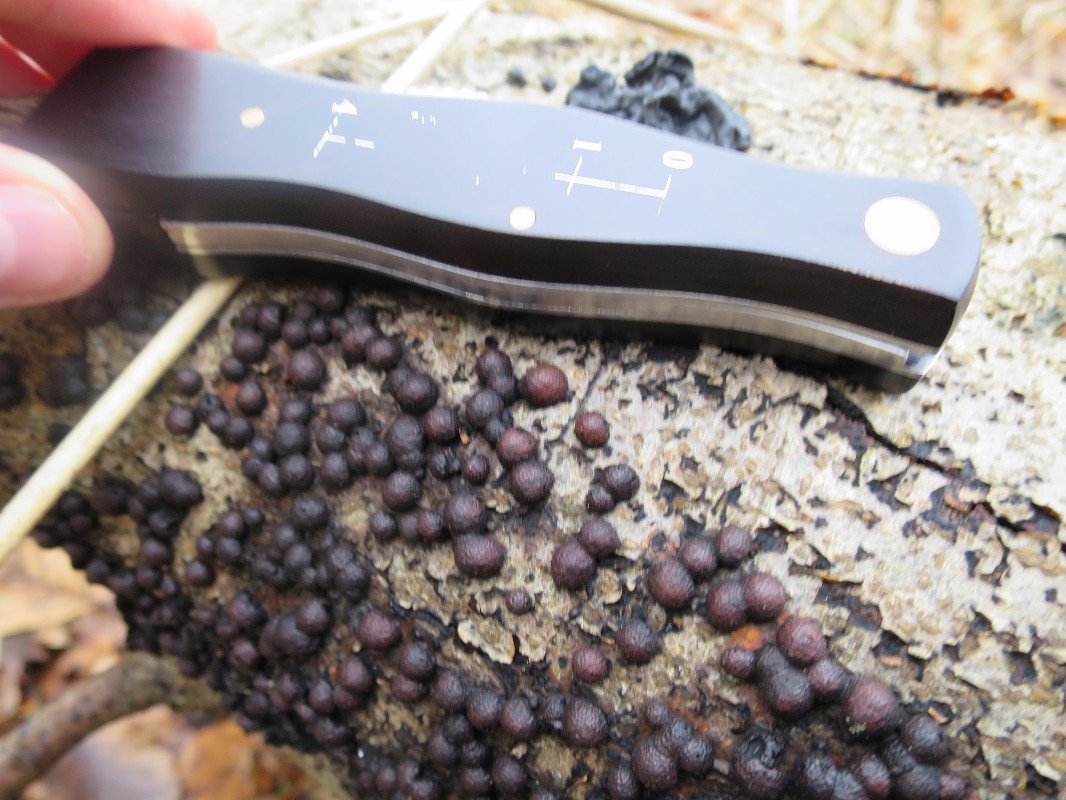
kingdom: Fungi
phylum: Ascomycota
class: Sordariomycetes
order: Xylariales
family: Hypoxylaceae
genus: Hypoxylon
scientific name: Hypoxylon fragiforme
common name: kuljordbær
